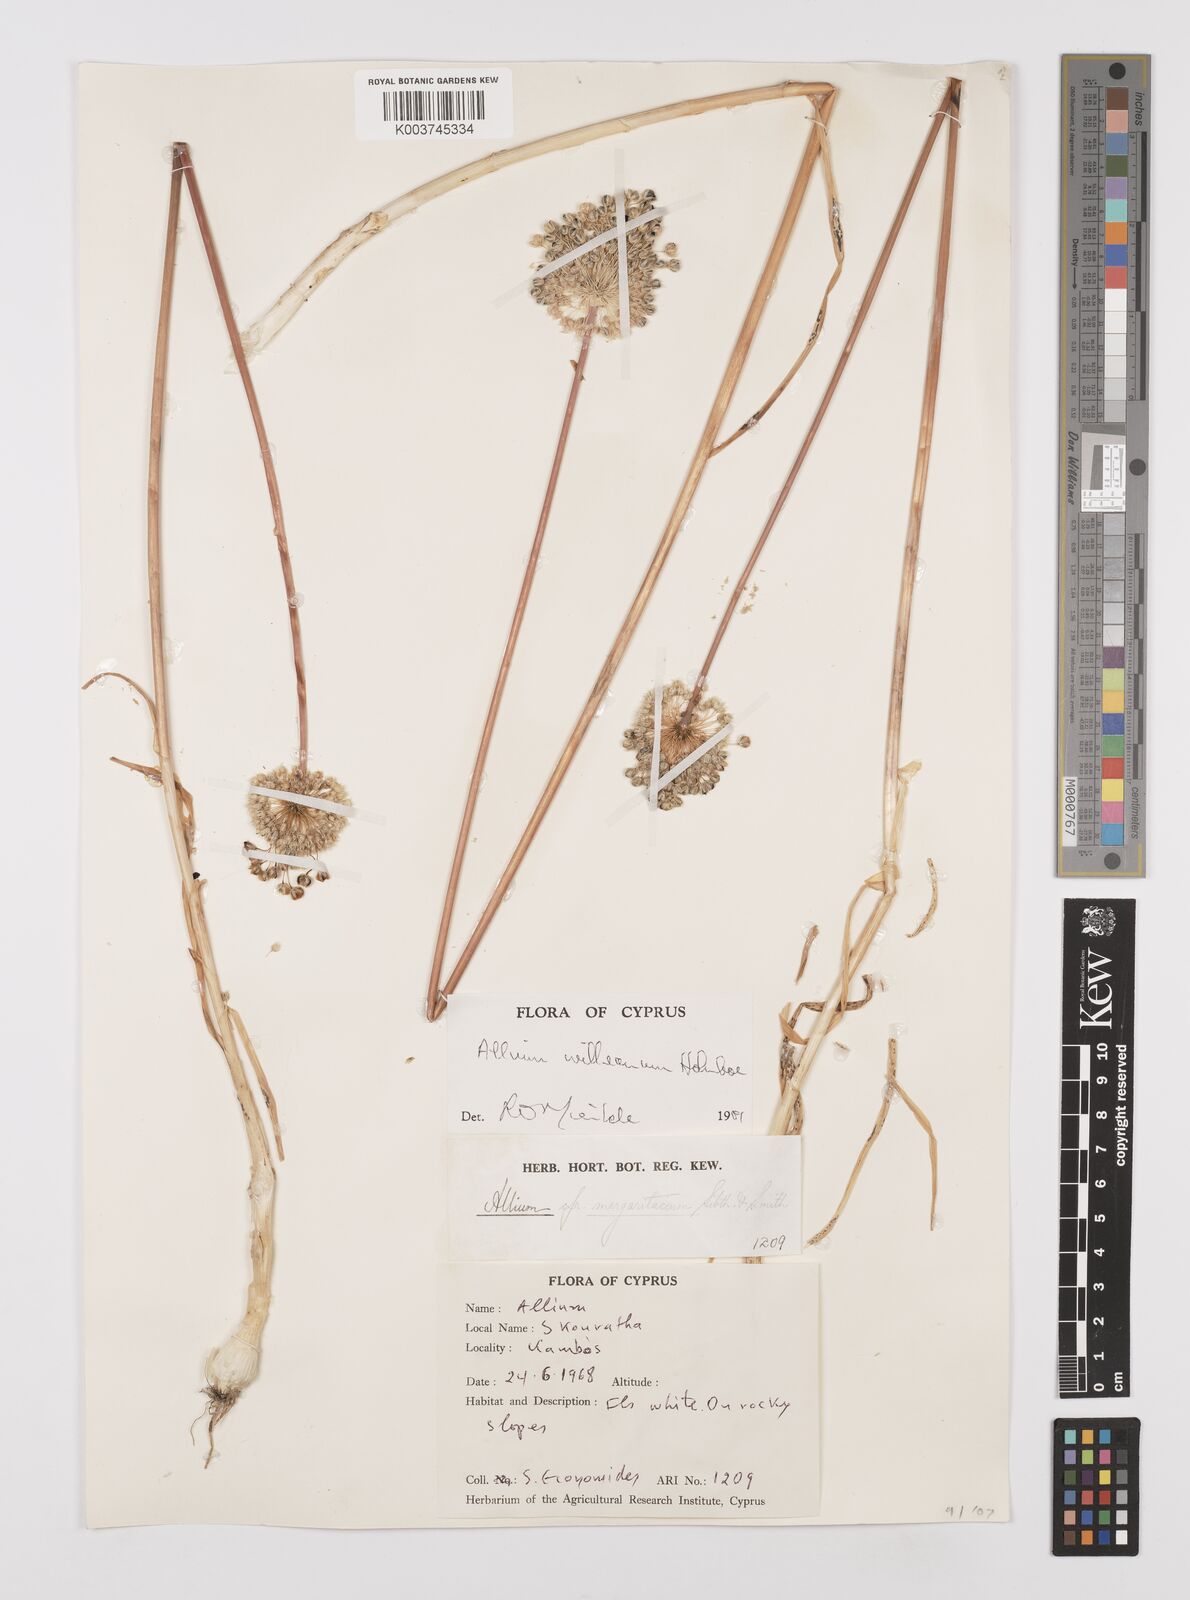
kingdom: Plantae
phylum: Tracheophyta
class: Liliopsida
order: Asparagales
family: Amaryllidaceae
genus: Allium
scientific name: Allium willeanum
